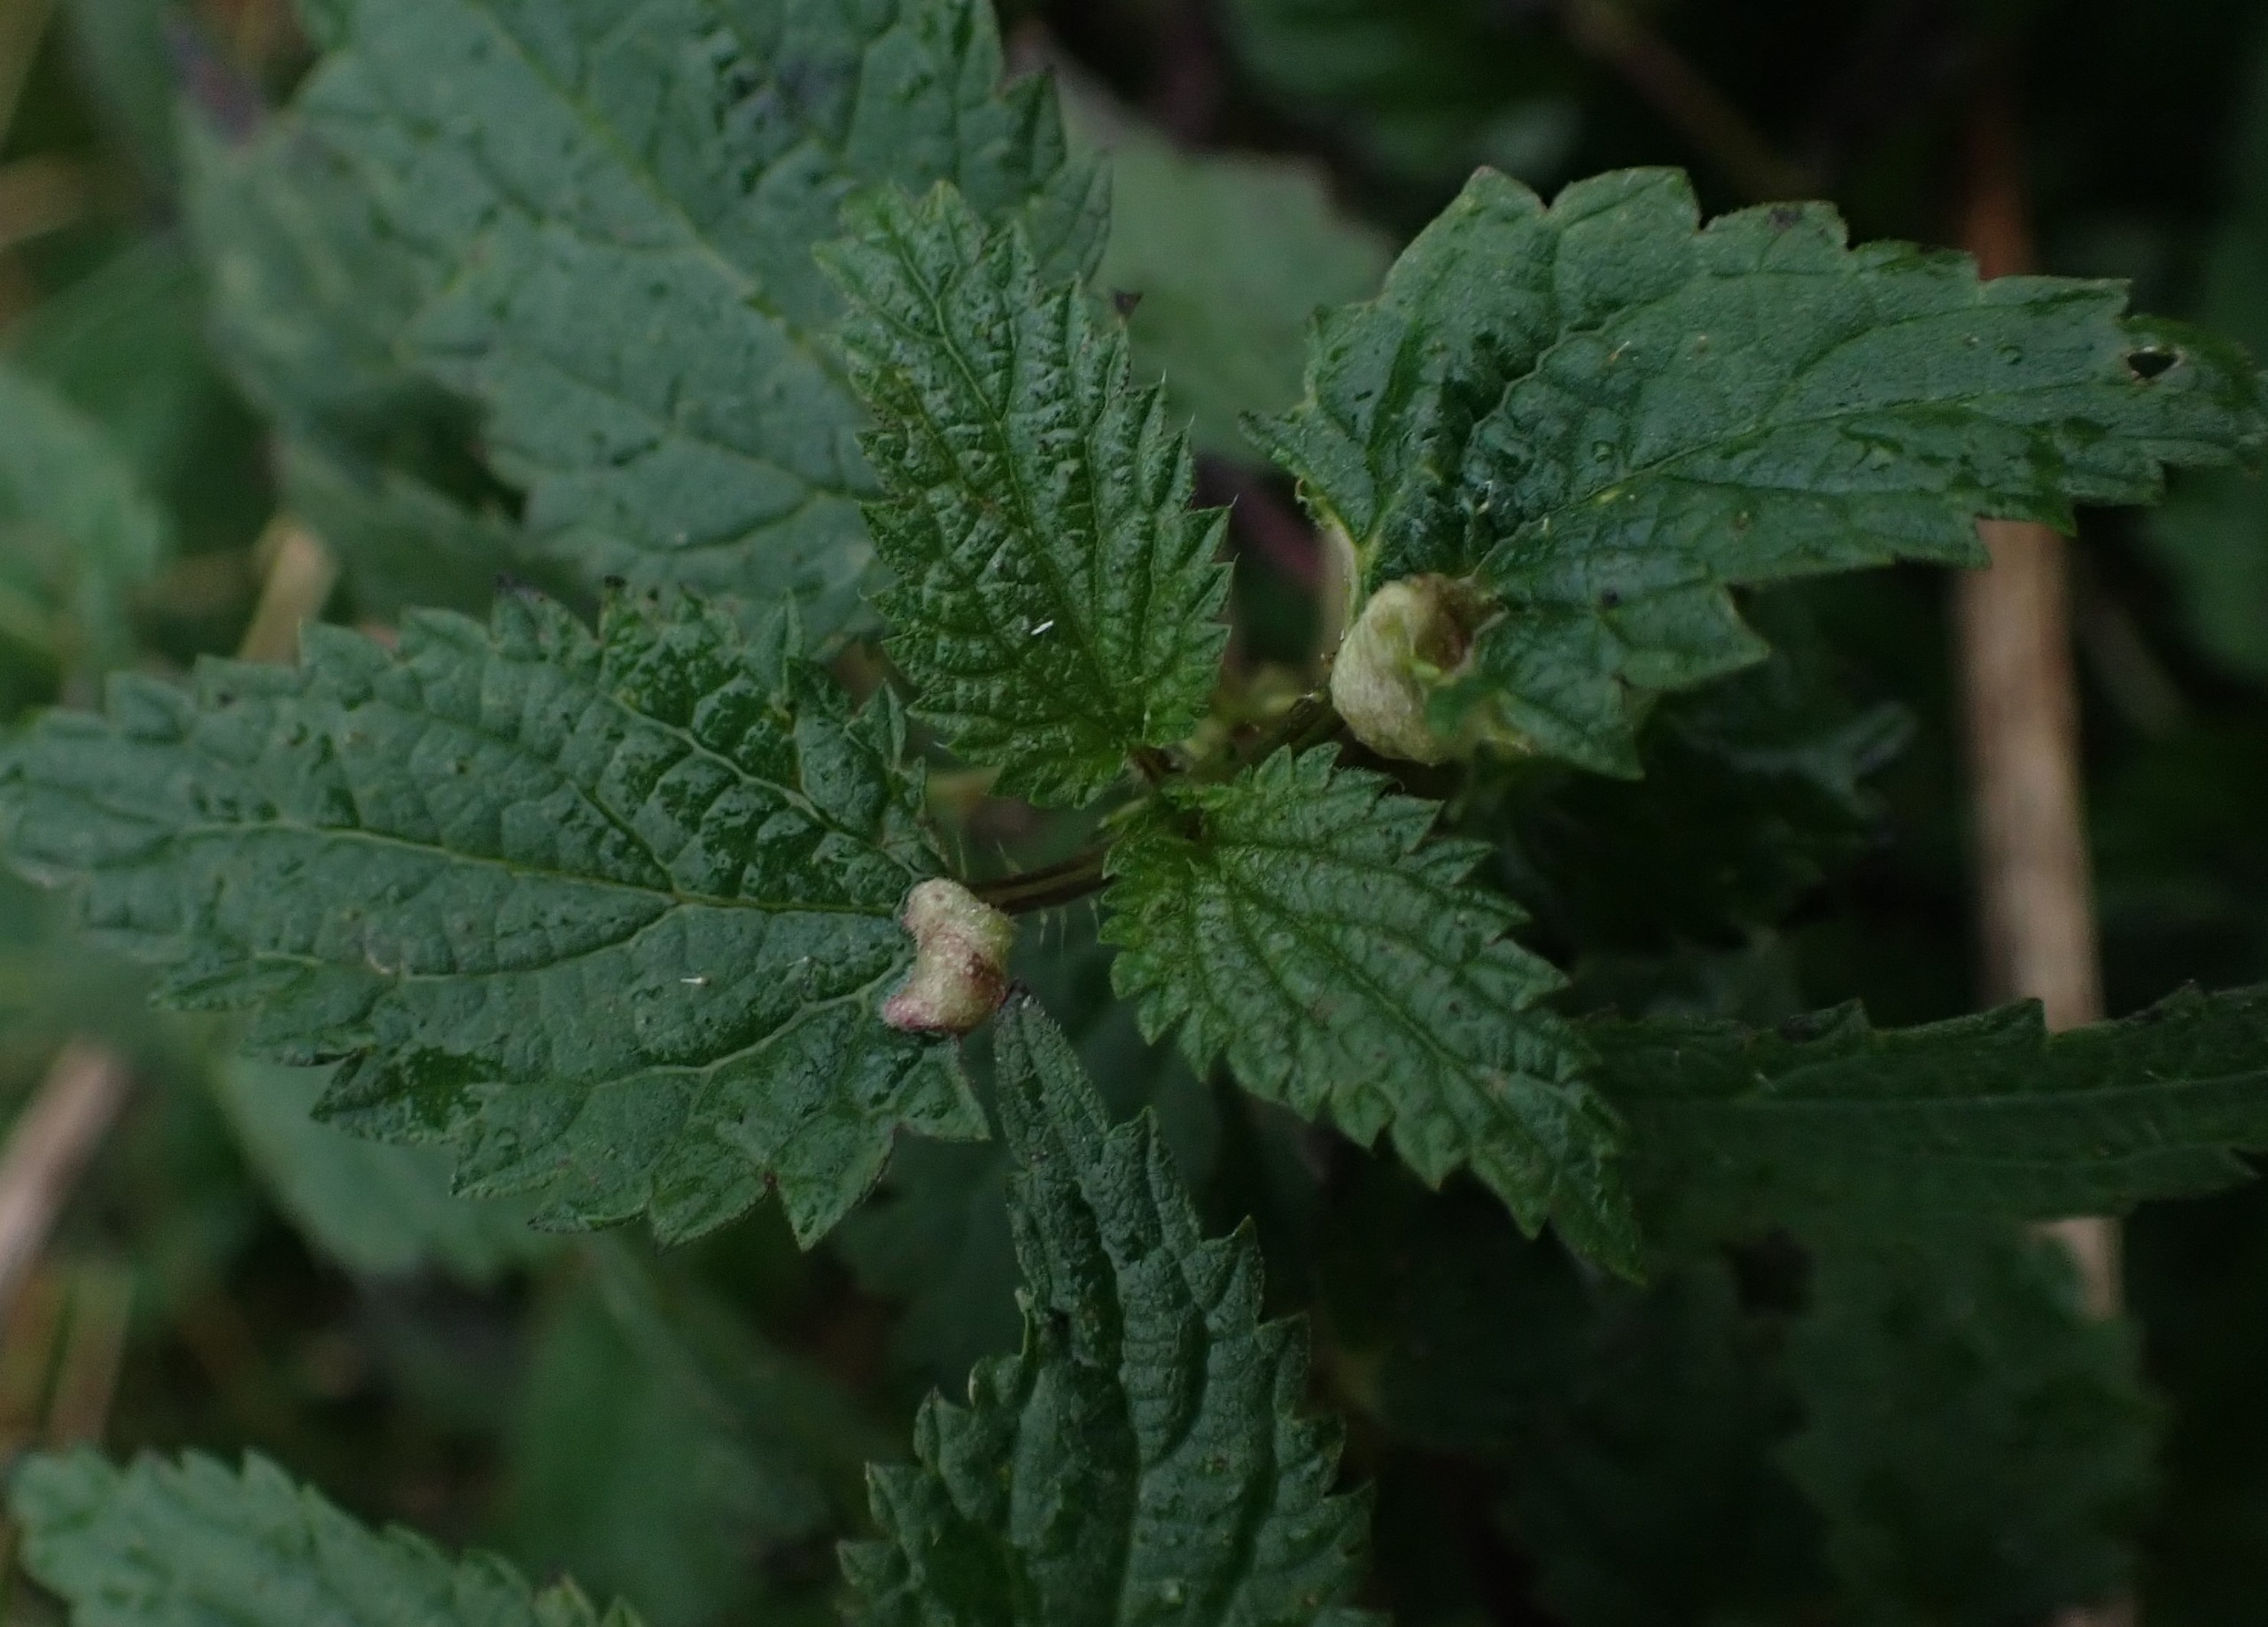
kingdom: Animalia
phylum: Arthropoda
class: Insecta
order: Diptera
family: Cecidomyiidae
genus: Dasineura
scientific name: Dasineura urticae
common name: Nældepunggalmyg
